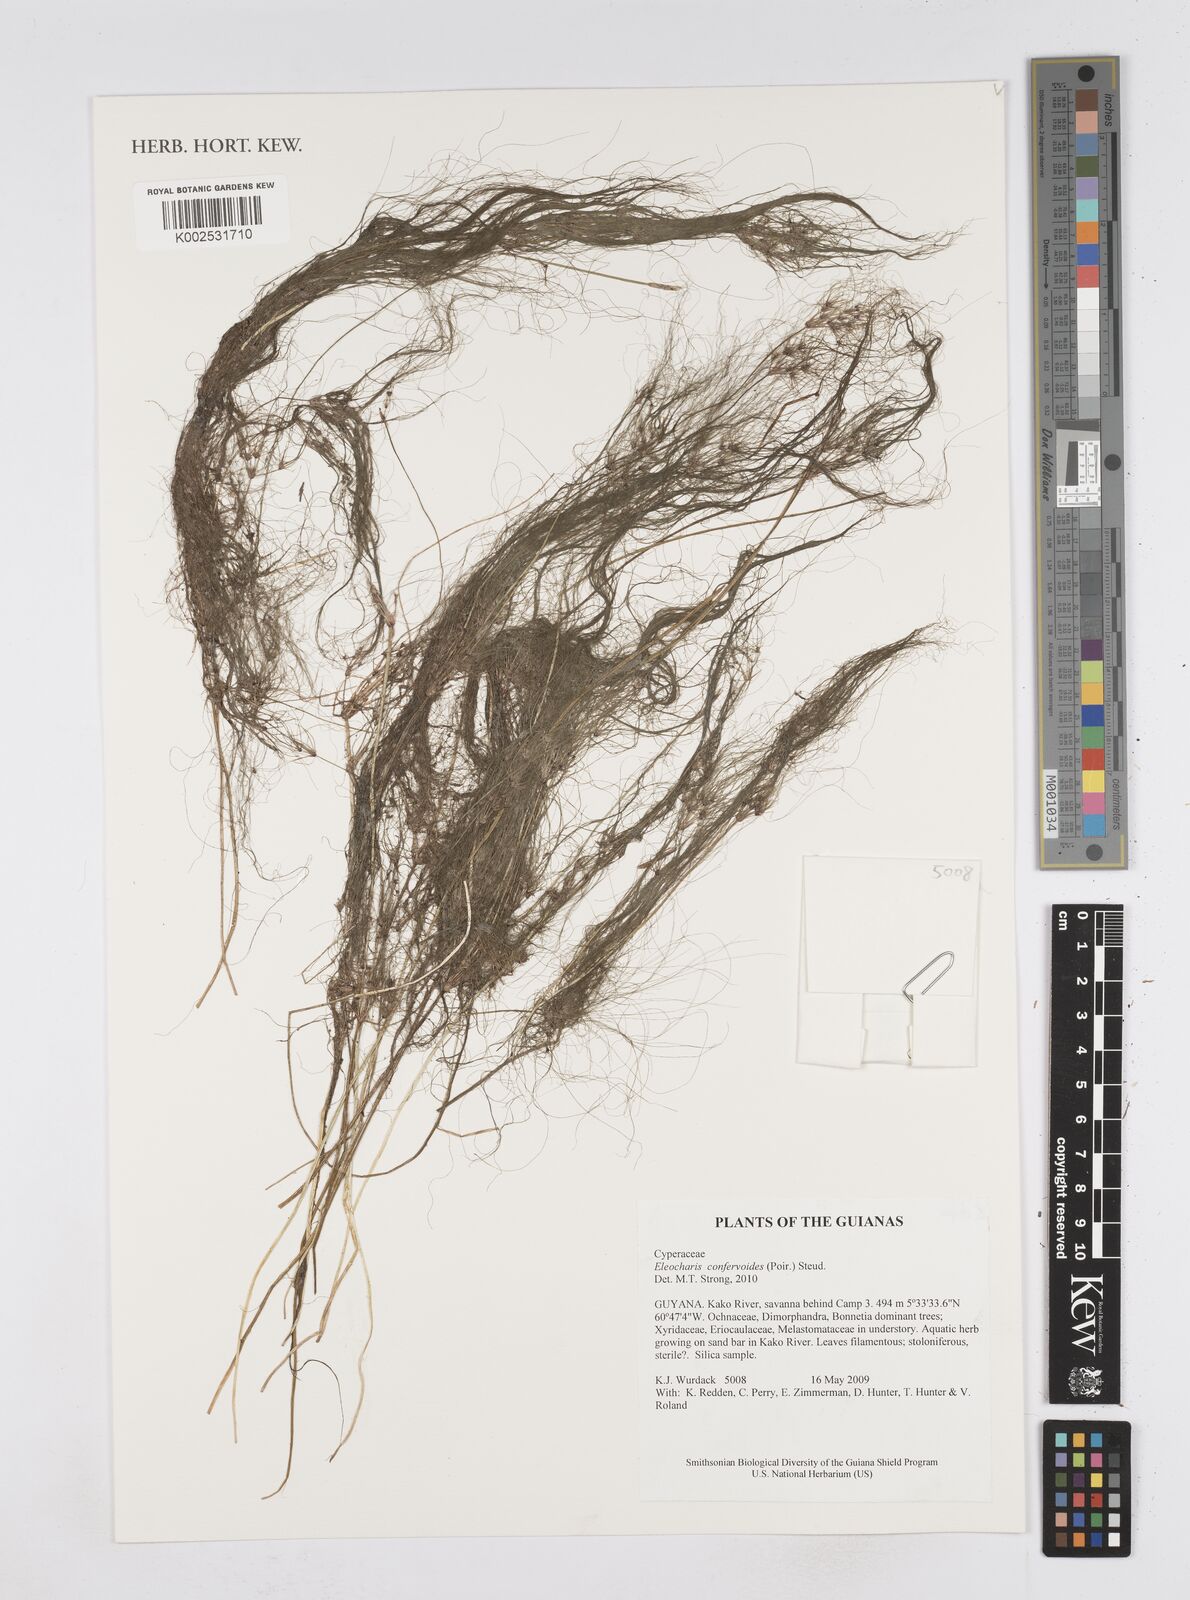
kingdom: Plantae
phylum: Tracheophyta
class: Liliopsida
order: Poales
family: Cyperaceae
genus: Eleocharis
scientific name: Eleocharis confervoides
